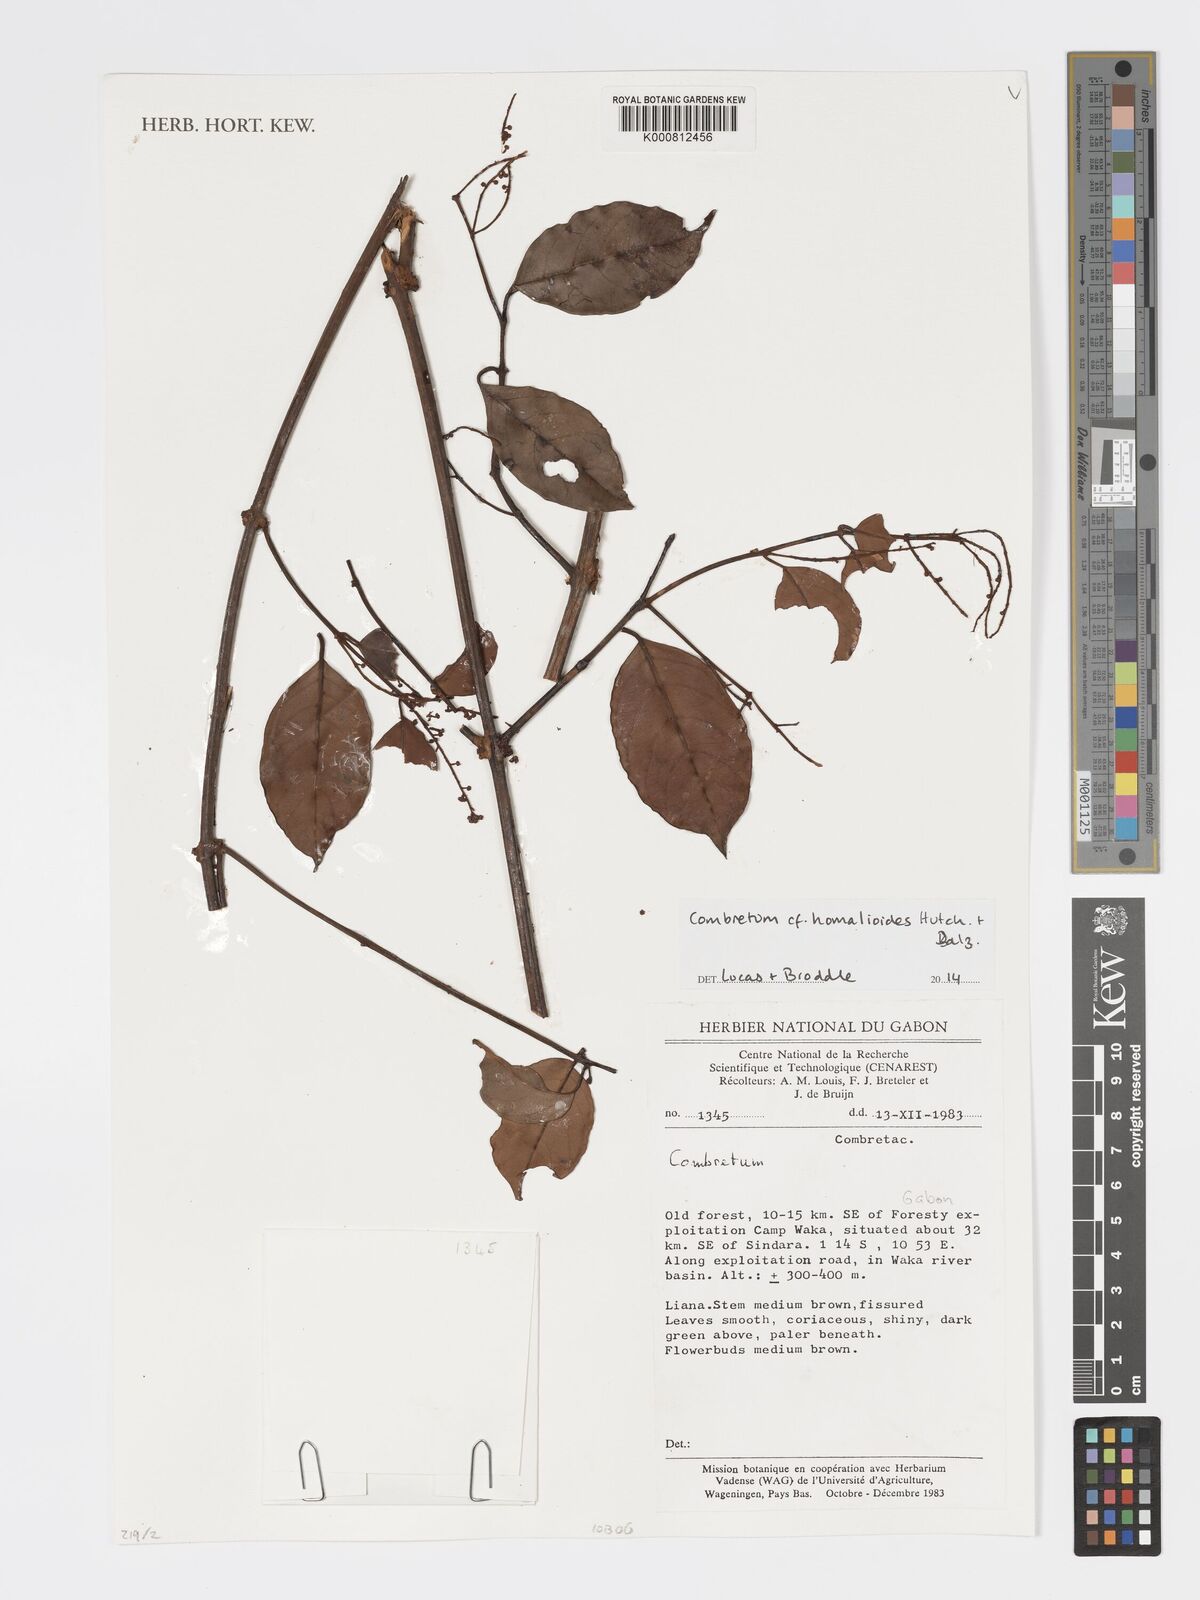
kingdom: Plantae
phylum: Tracheophyta
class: Magnoliopsida
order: Myrtales
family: Combretaceae
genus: Combretum
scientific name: Combretum homalioides
